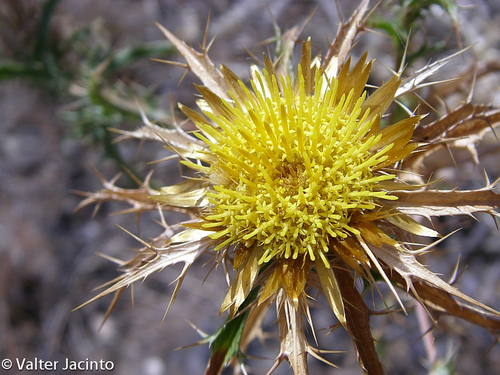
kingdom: Plantae
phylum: Tracheophyta
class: Magnoliopsida
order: Asterales
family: Asteraceae
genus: Carlina
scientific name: Carlina hispanica
